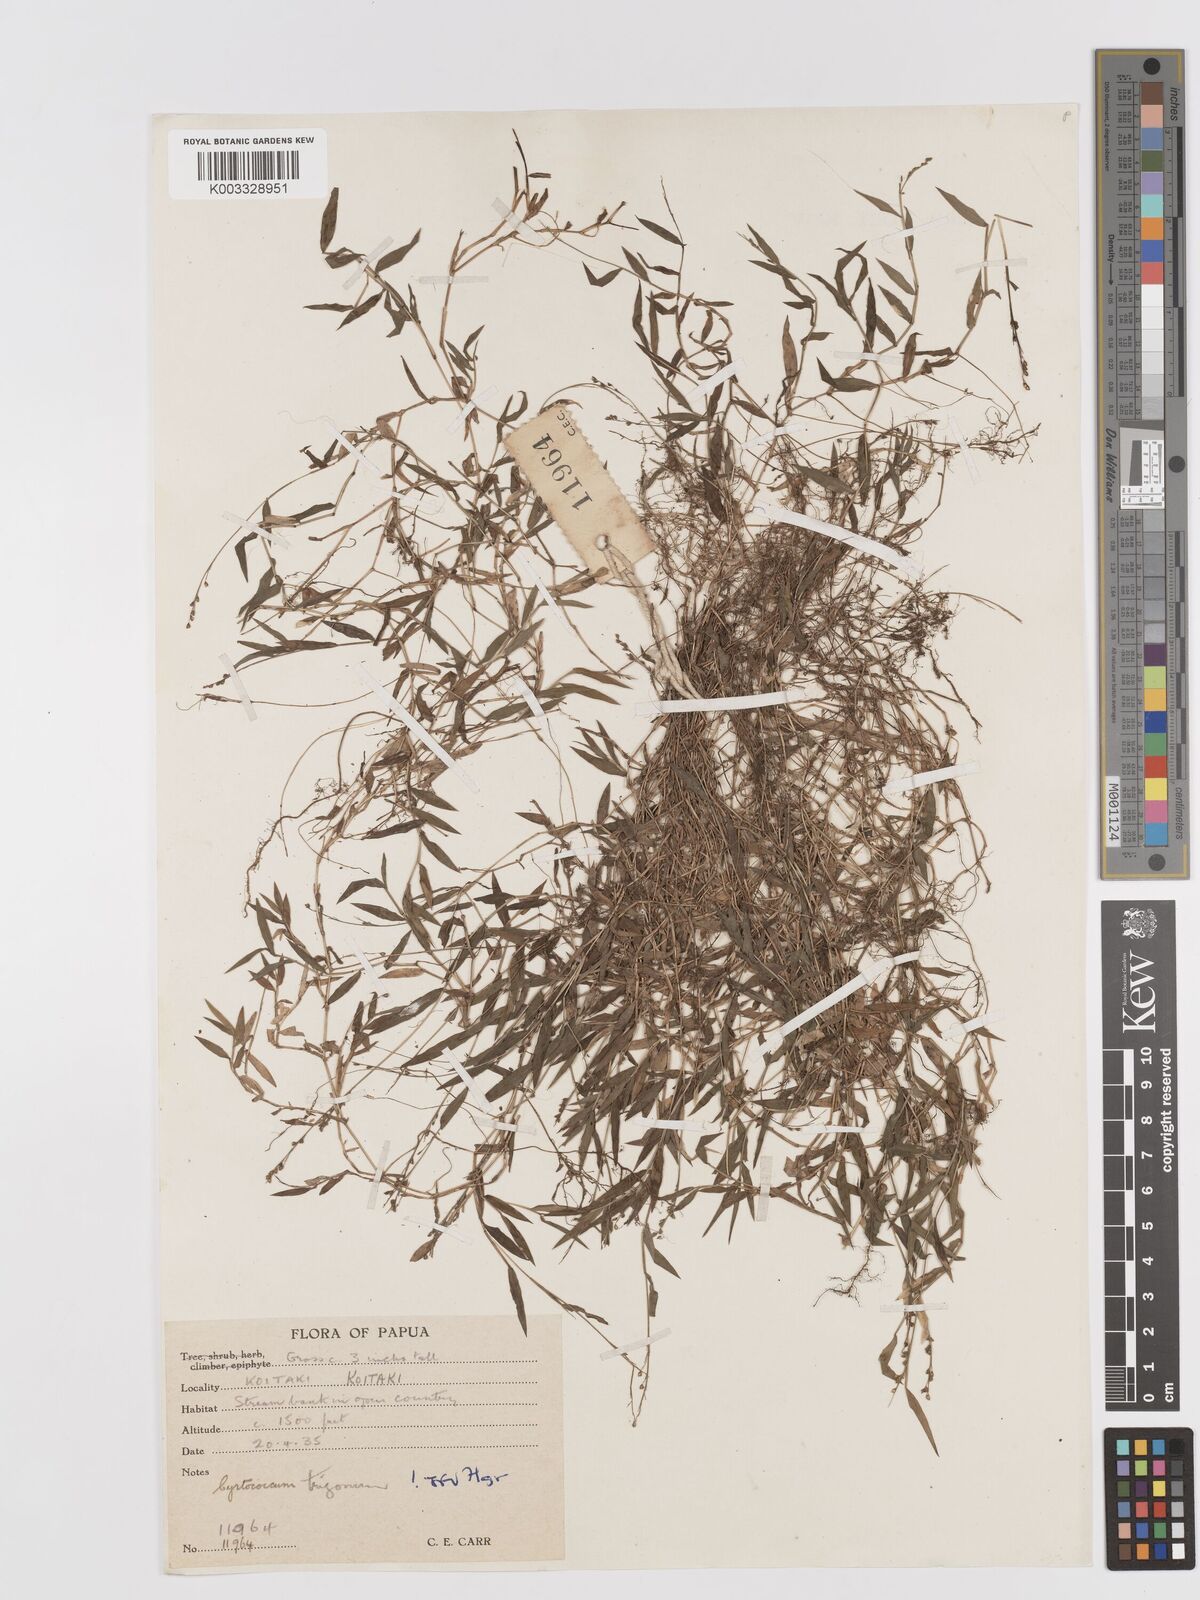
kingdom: Plantae
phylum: Tracheophyta
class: Liliopsida
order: Poales
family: Poaceae
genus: Cyrtococcum
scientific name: Cyrtococcum trigonum
